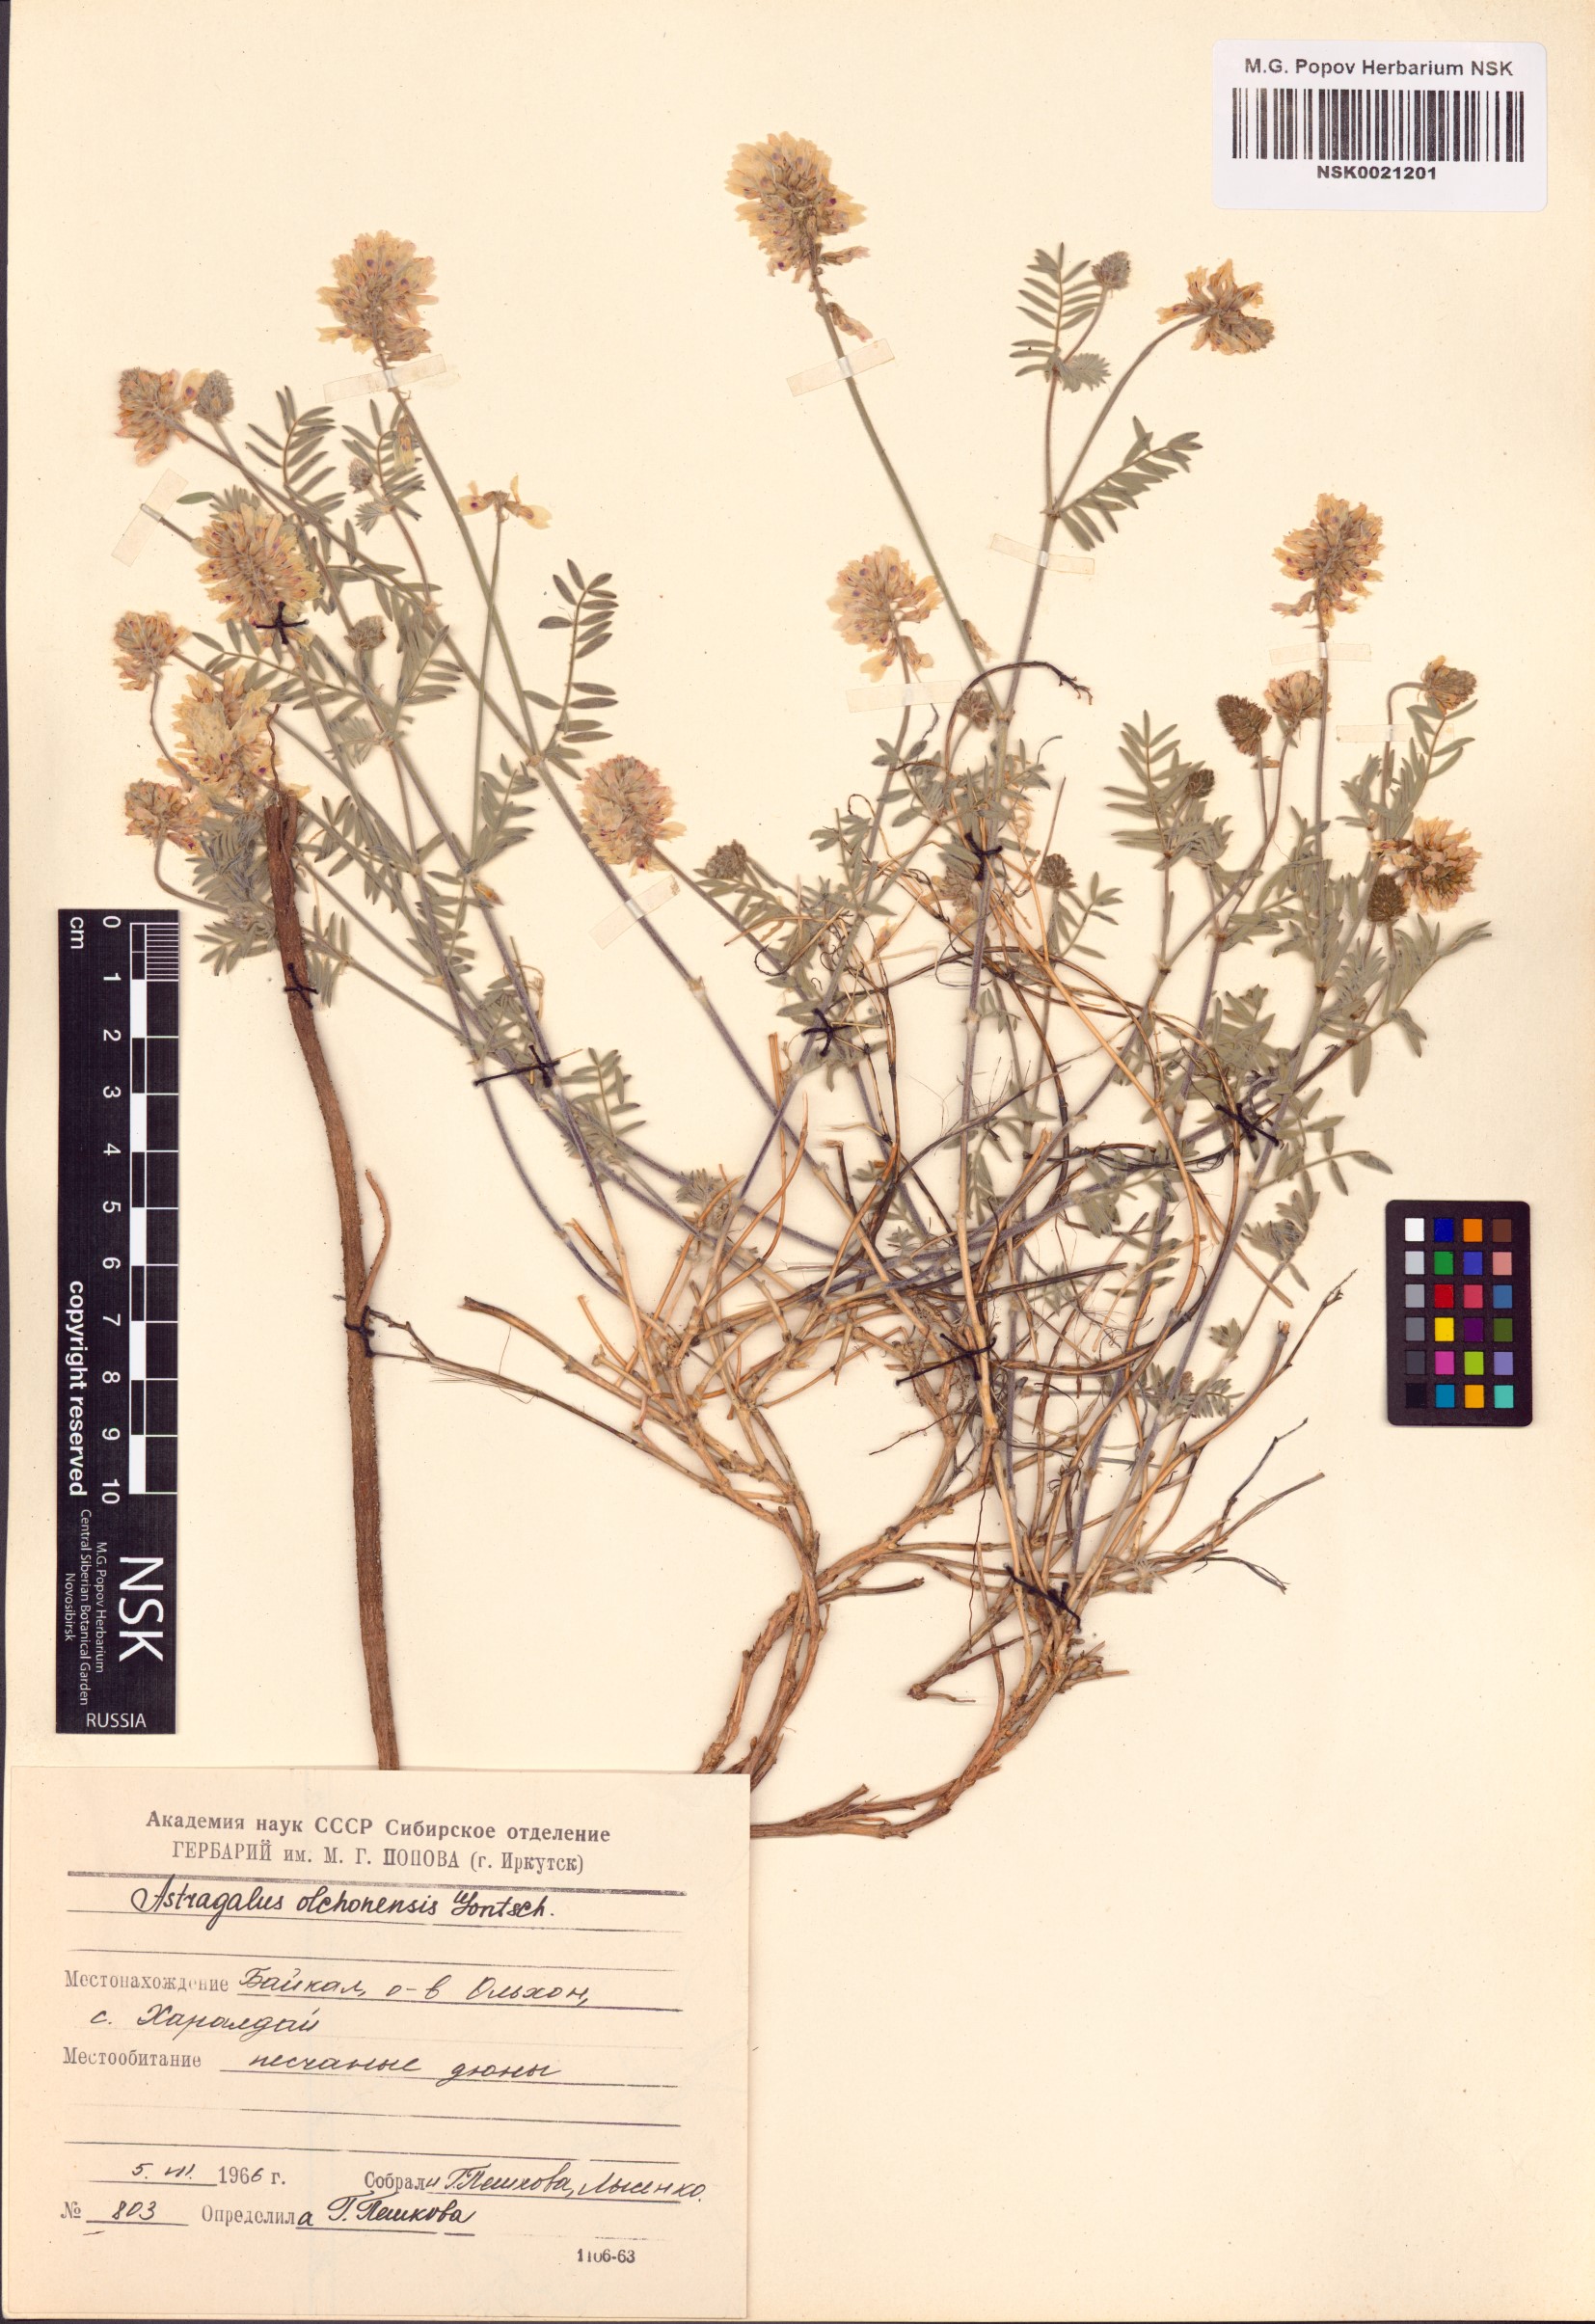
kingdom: Plantae
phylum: Tracheophyta
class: Magnoliopsida
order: Fabales
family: Fabaceae
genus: Astragalus
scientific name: Astragalus olchonensis
